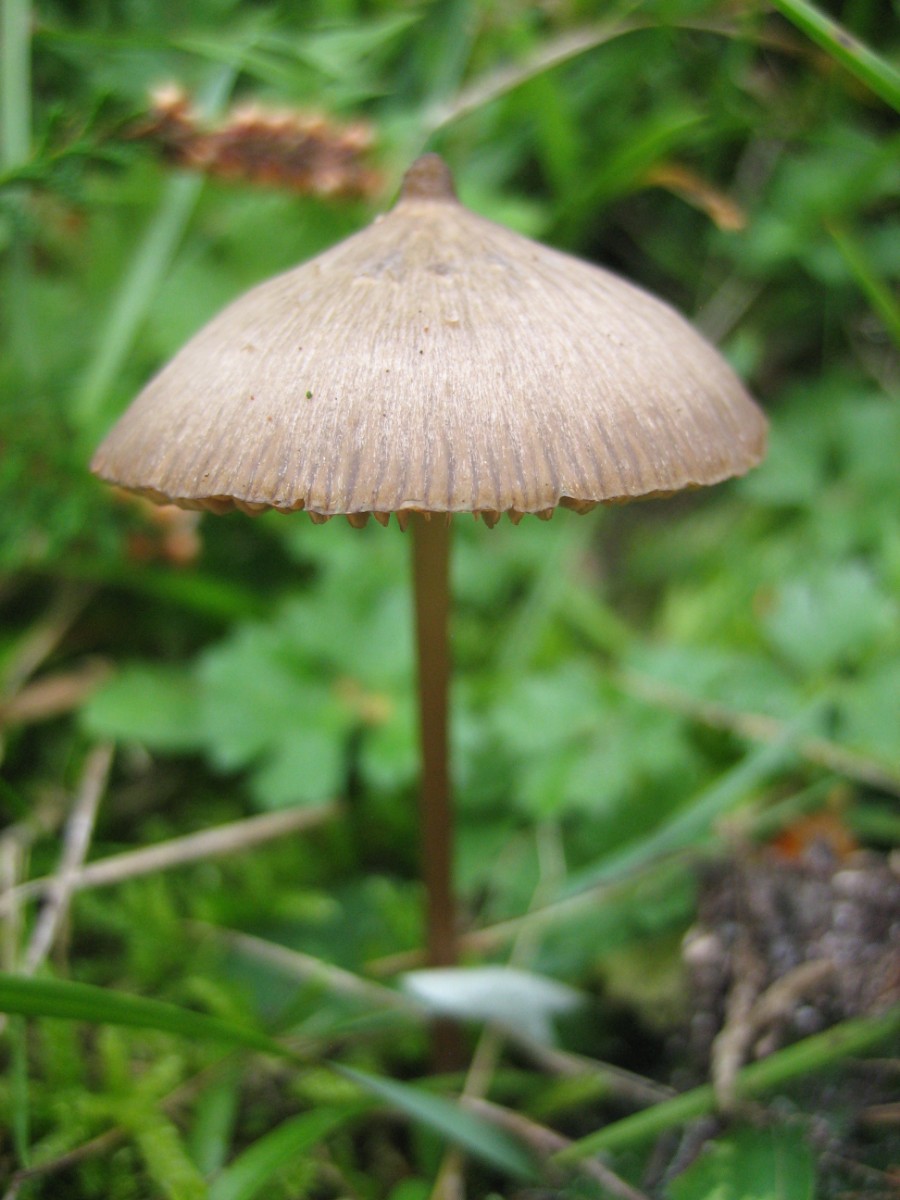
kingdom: Fungi
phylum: Basidiomycota
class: Agaricomycetes
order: Agaricales
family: Entolomataceae
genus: Entoloma
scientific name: Entoloma
